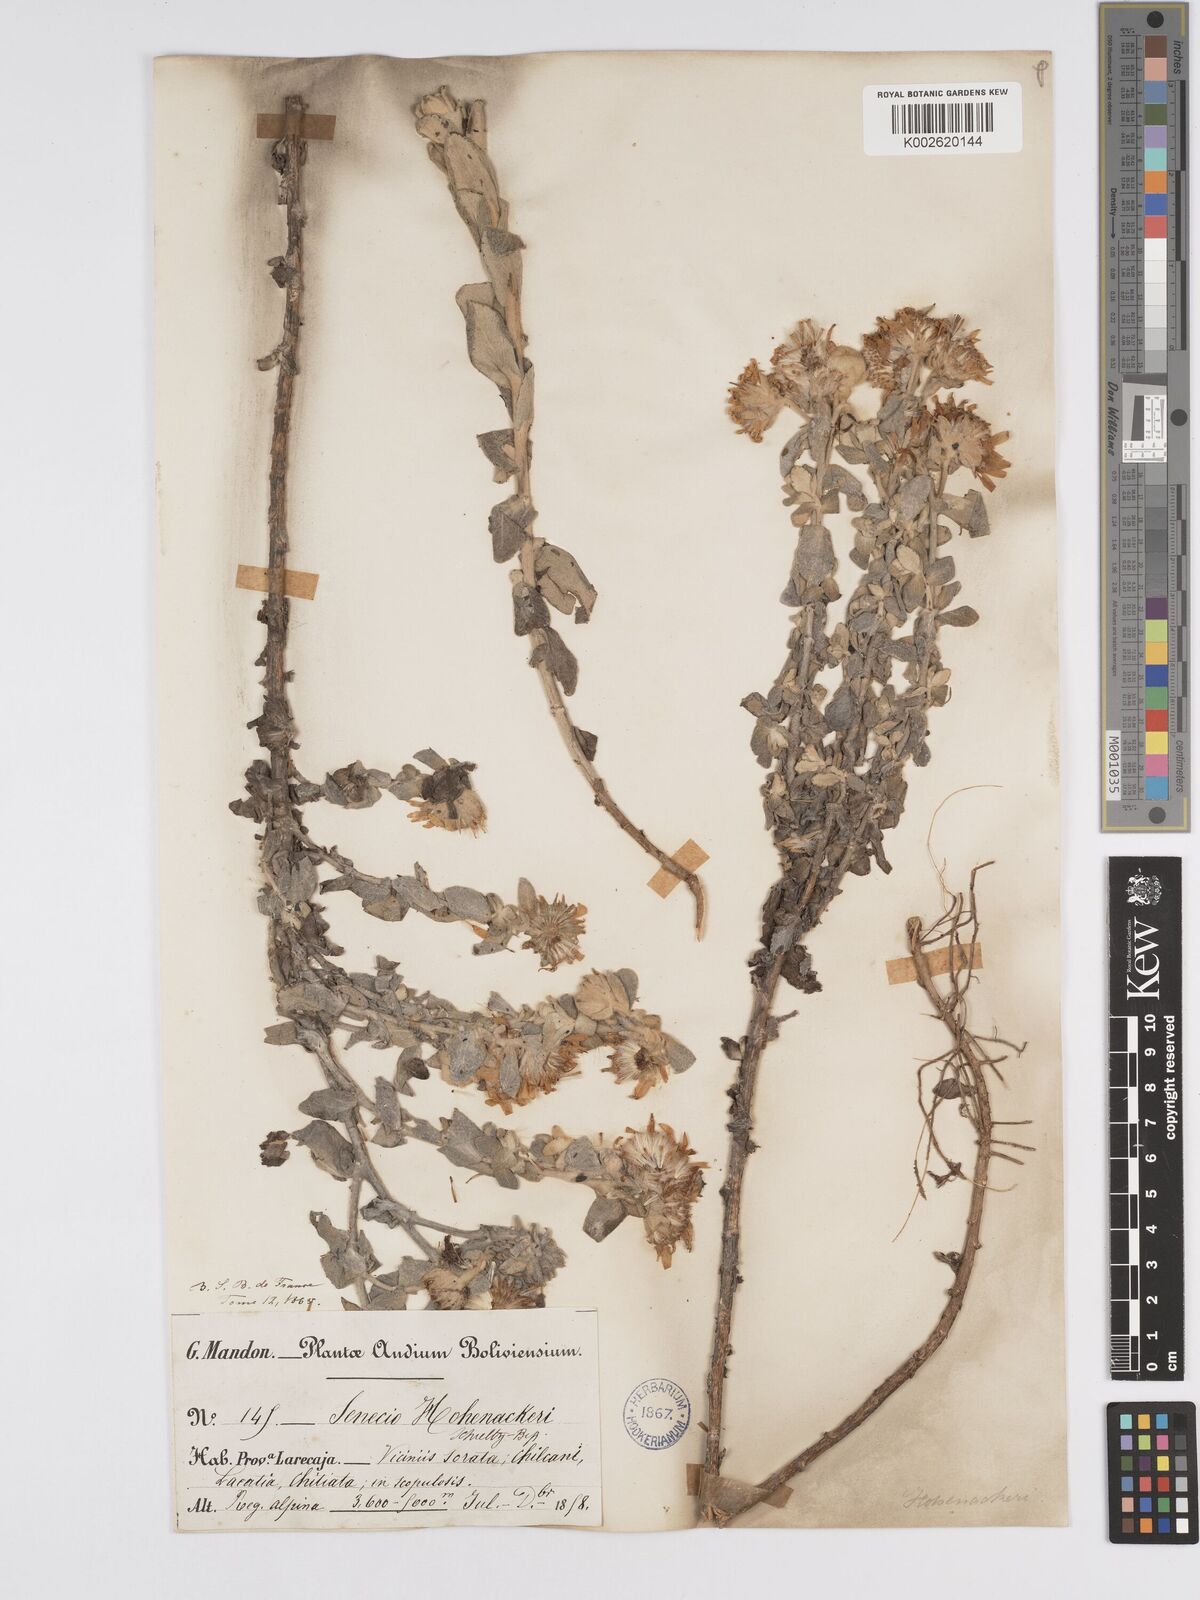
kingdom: Plantae
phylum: Tracheophyta
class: Magnoliopsida
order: Asterales
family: Asteraceae
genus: Senecio
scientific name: Senecio hohenackeri
